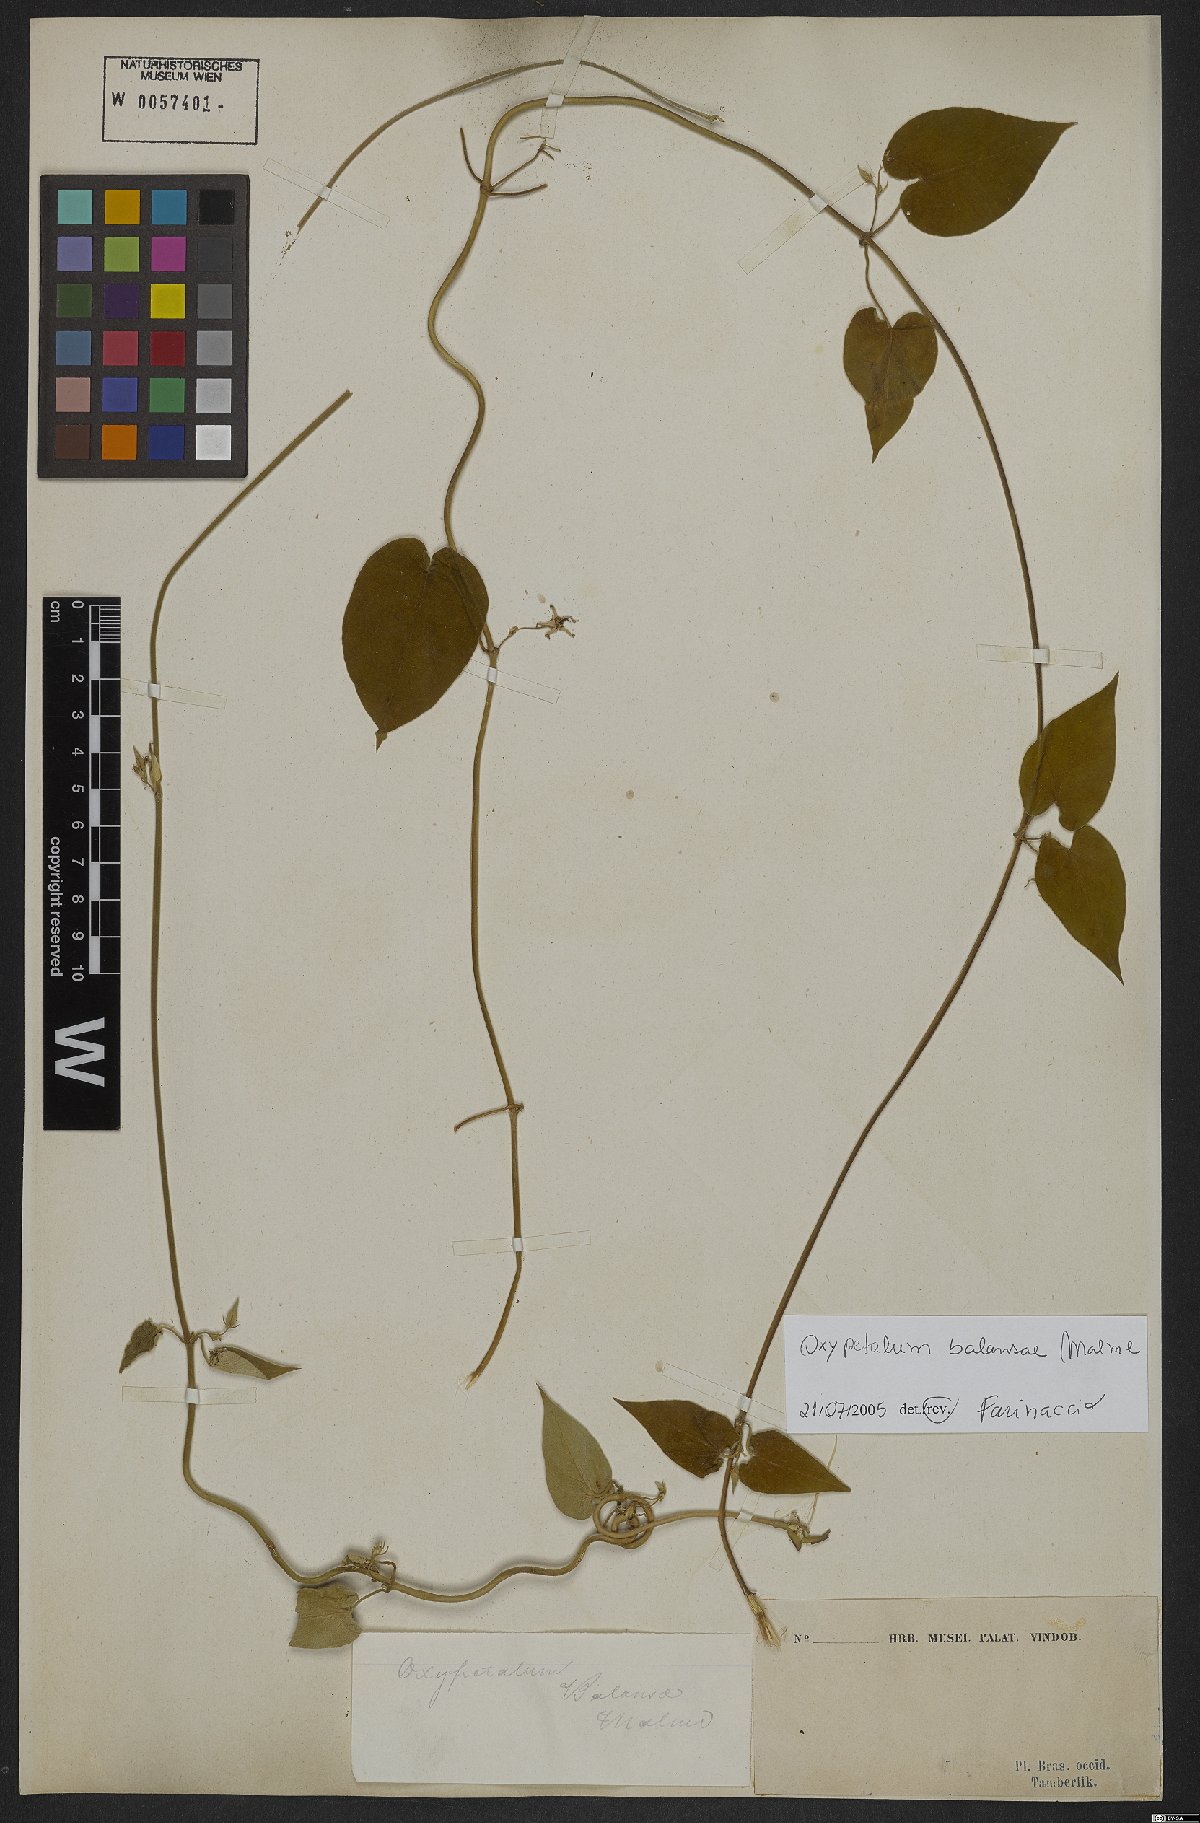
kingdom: Plantae
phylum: Tracheophyta
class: Magnoliopsida
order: Gentianales
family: Apocynaceae
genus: Oxypetalum
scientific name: Oxypetalum balansae
